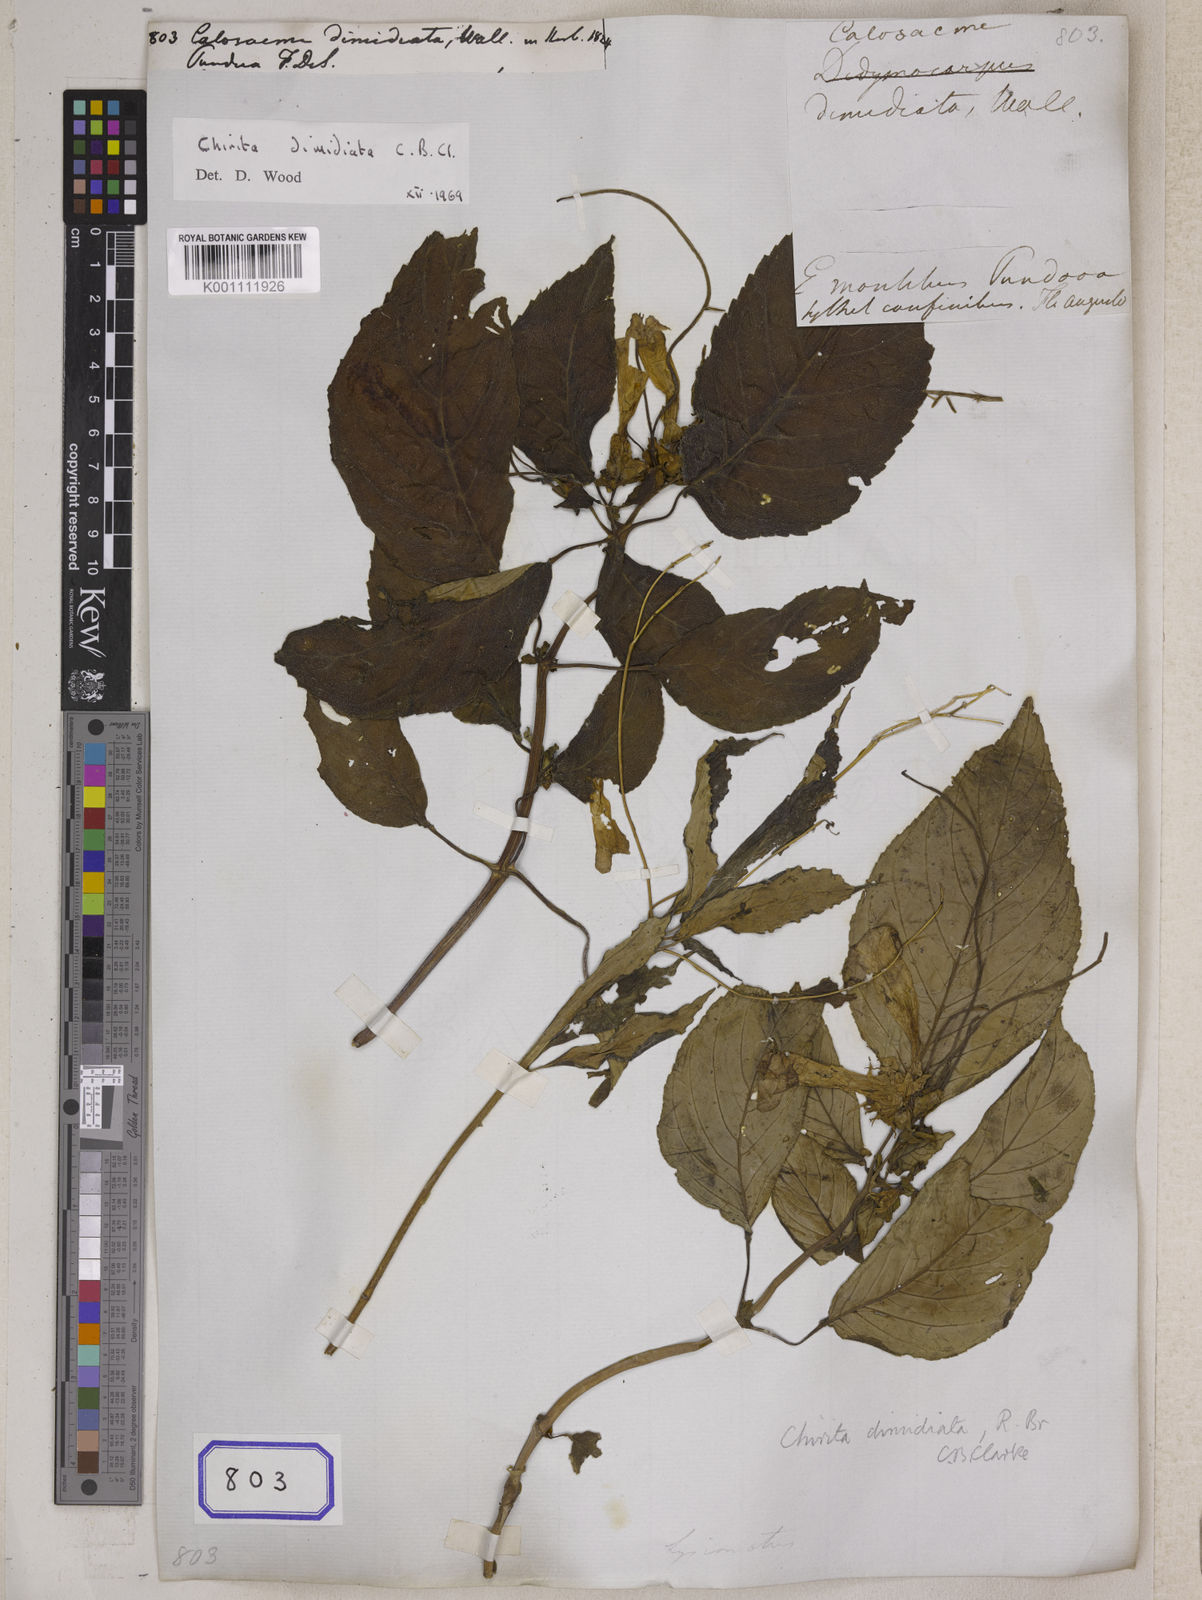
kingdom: Plantae
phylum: Tracheophyta
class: Magnoliopsida
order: Lamiales
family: Gesneriaceae
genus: Henckelia
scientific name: Henckelia dimidiata
